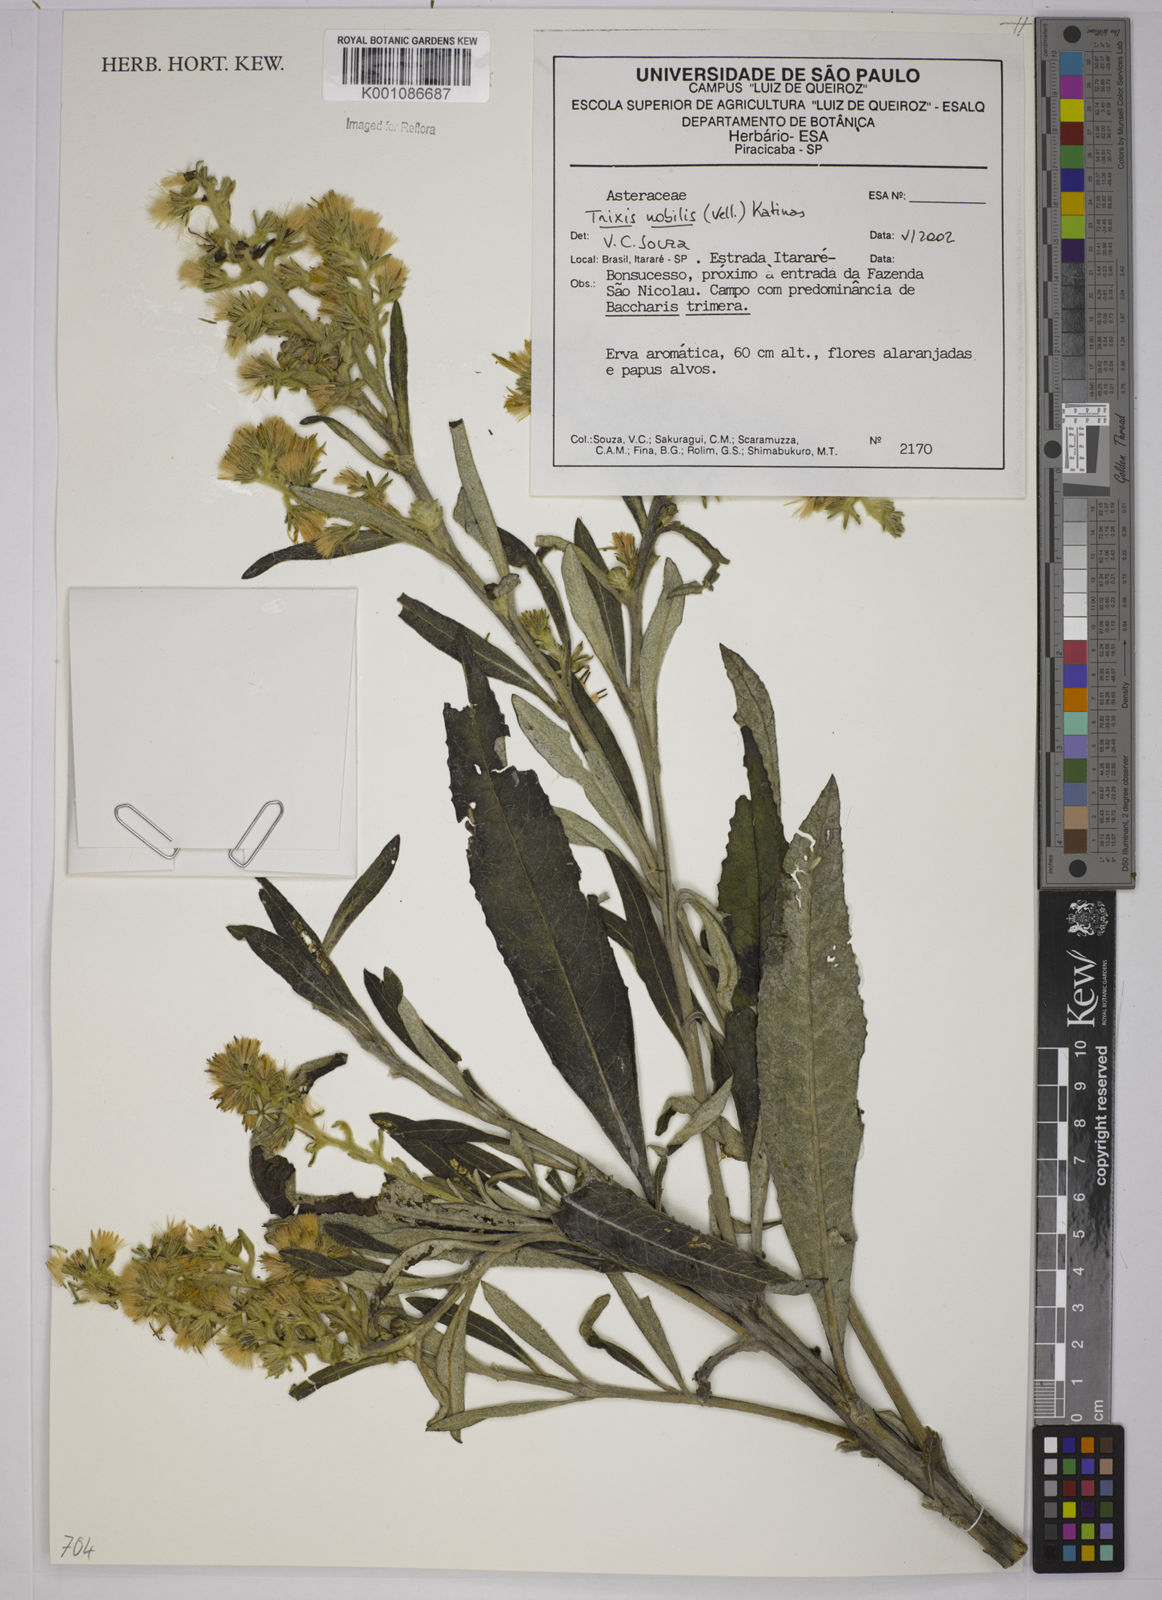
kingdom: Plantae
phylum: Tracheophyta
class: Magnoliopsida
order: Asterales
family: Asteraceae
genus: Trixis
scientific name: Trixis nobilis
